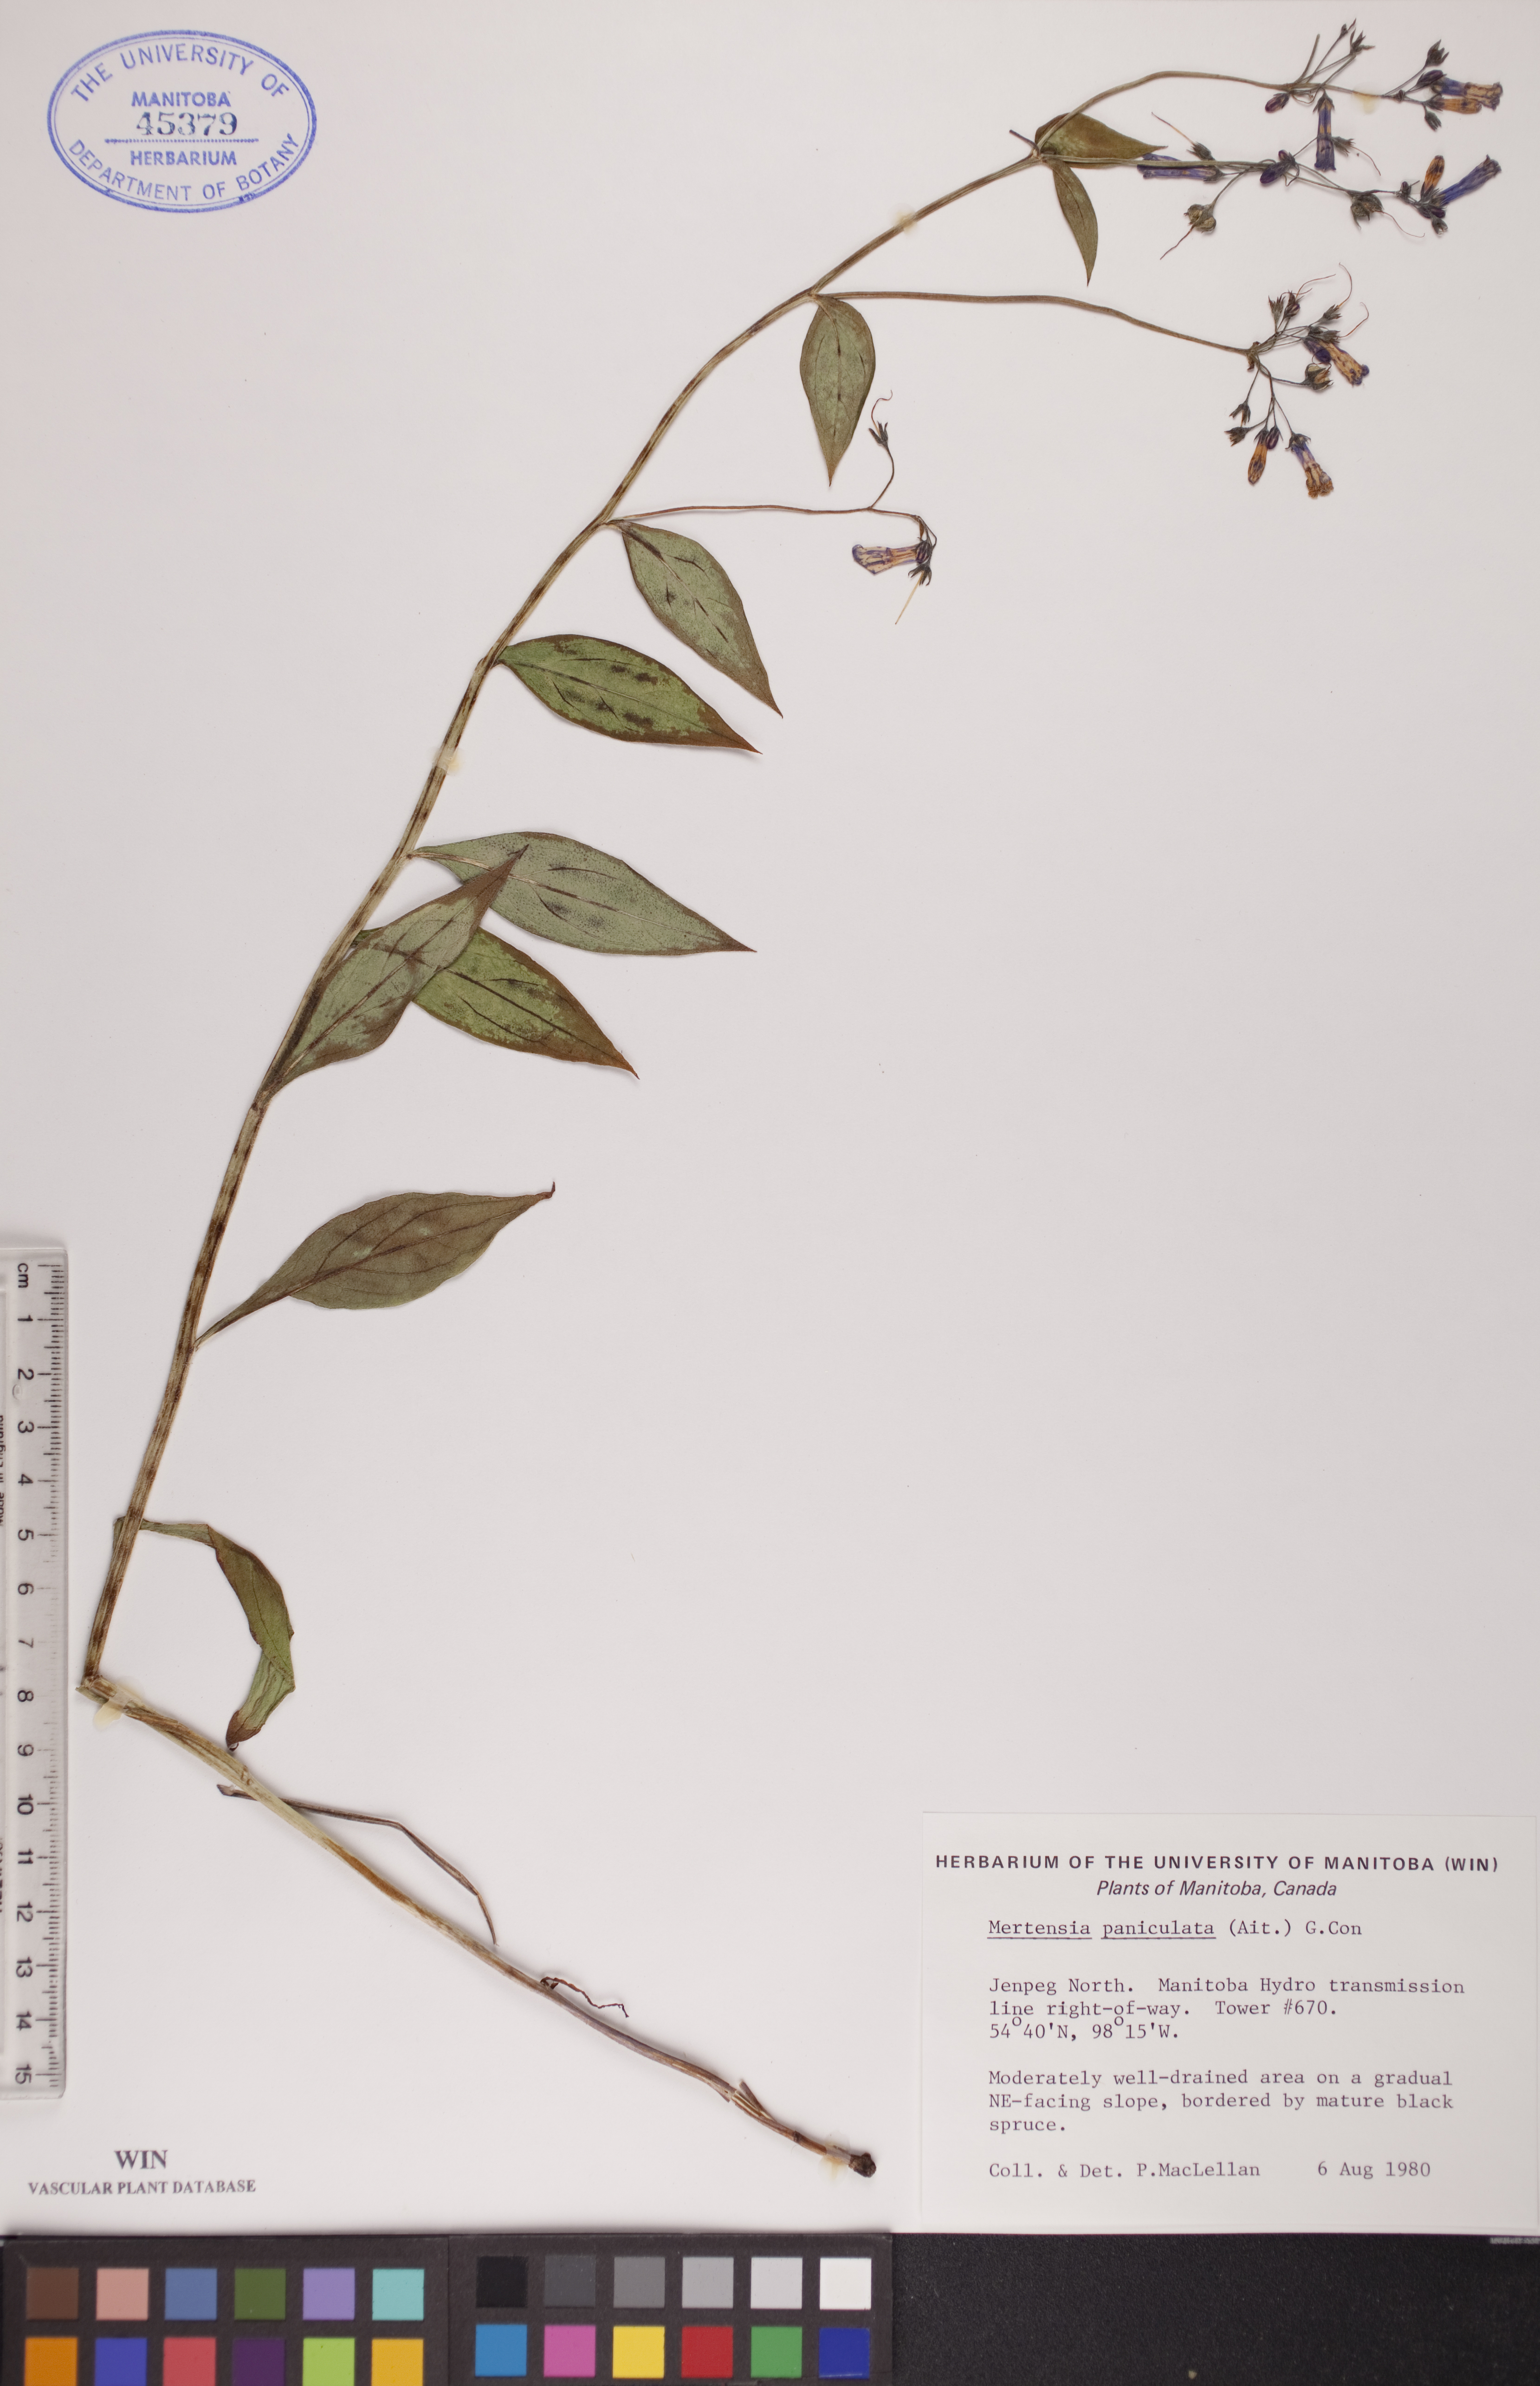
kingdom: Plantae
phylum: Tracheophyta
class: Magnoliopsida
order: Boraginales
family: Boraginaceae
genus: Mertensia
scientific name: Mertensia paniculata
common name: Panicled bluebells
